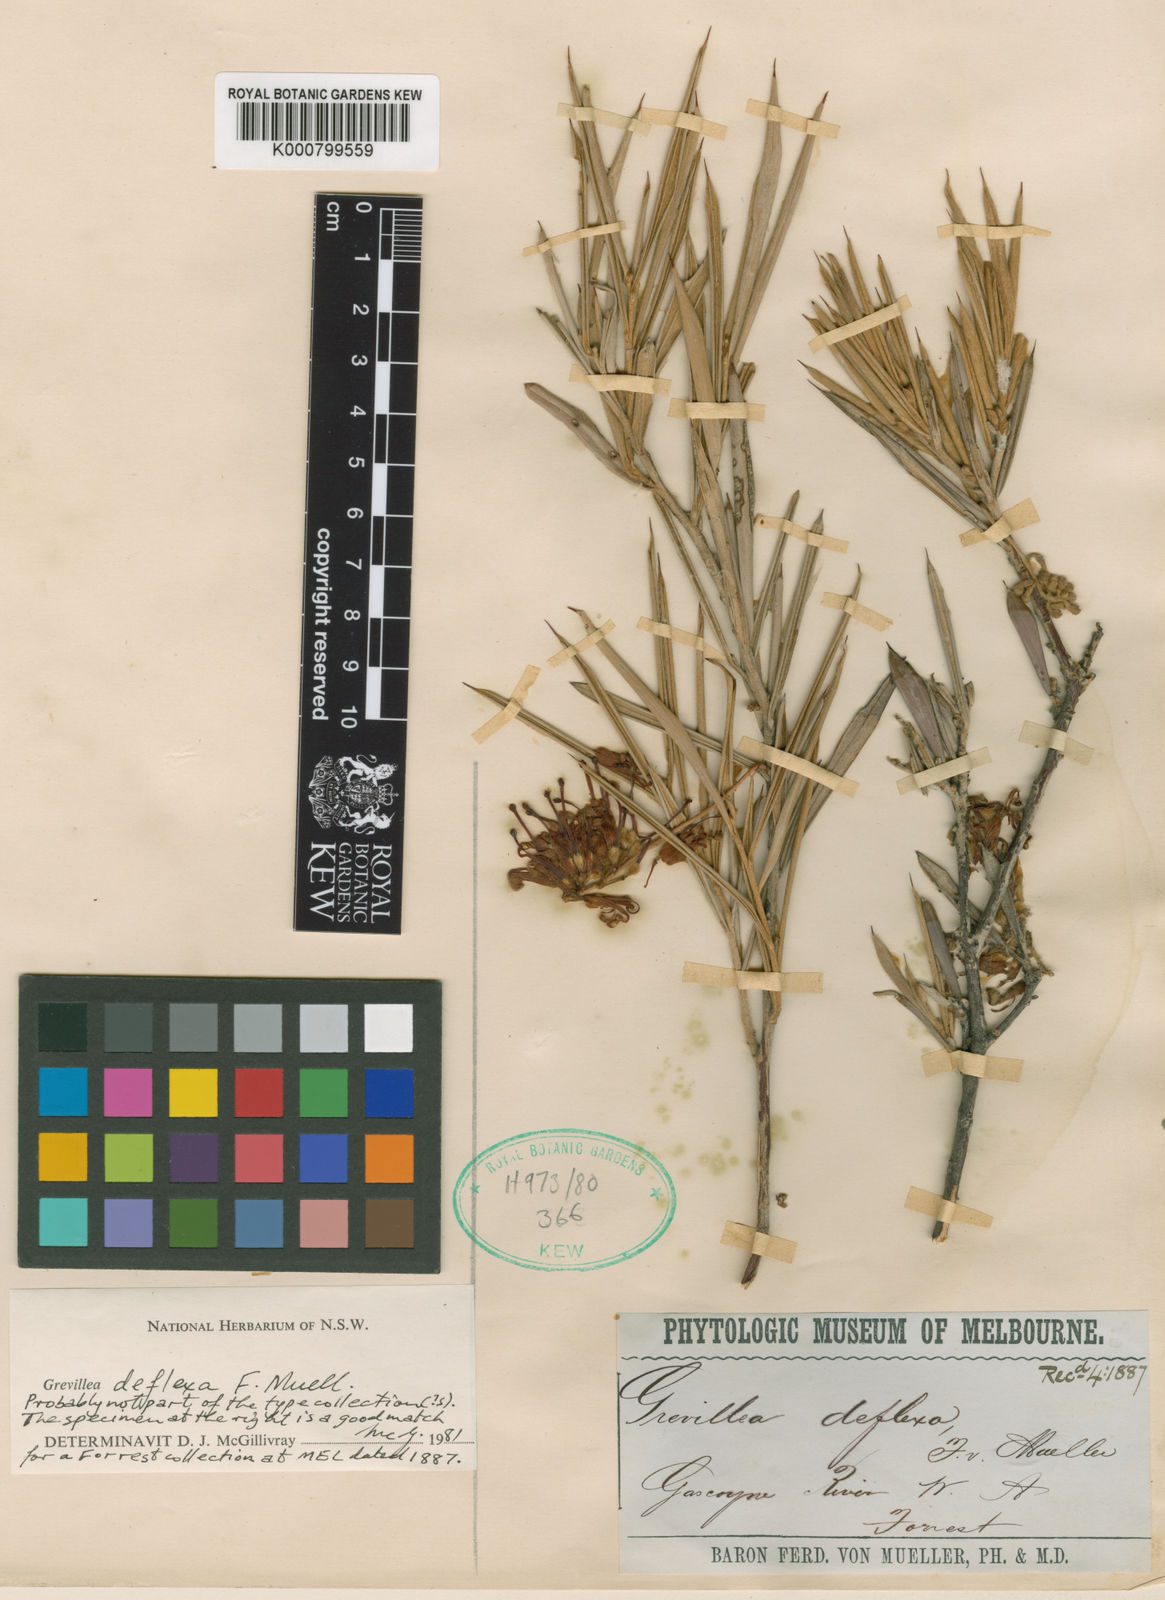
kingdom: Plantae
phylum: Tracheophyta
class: Magnoliopsida
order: Proteales
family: Proteaceae
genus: Grevillea
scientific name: Grevillea deflexa
